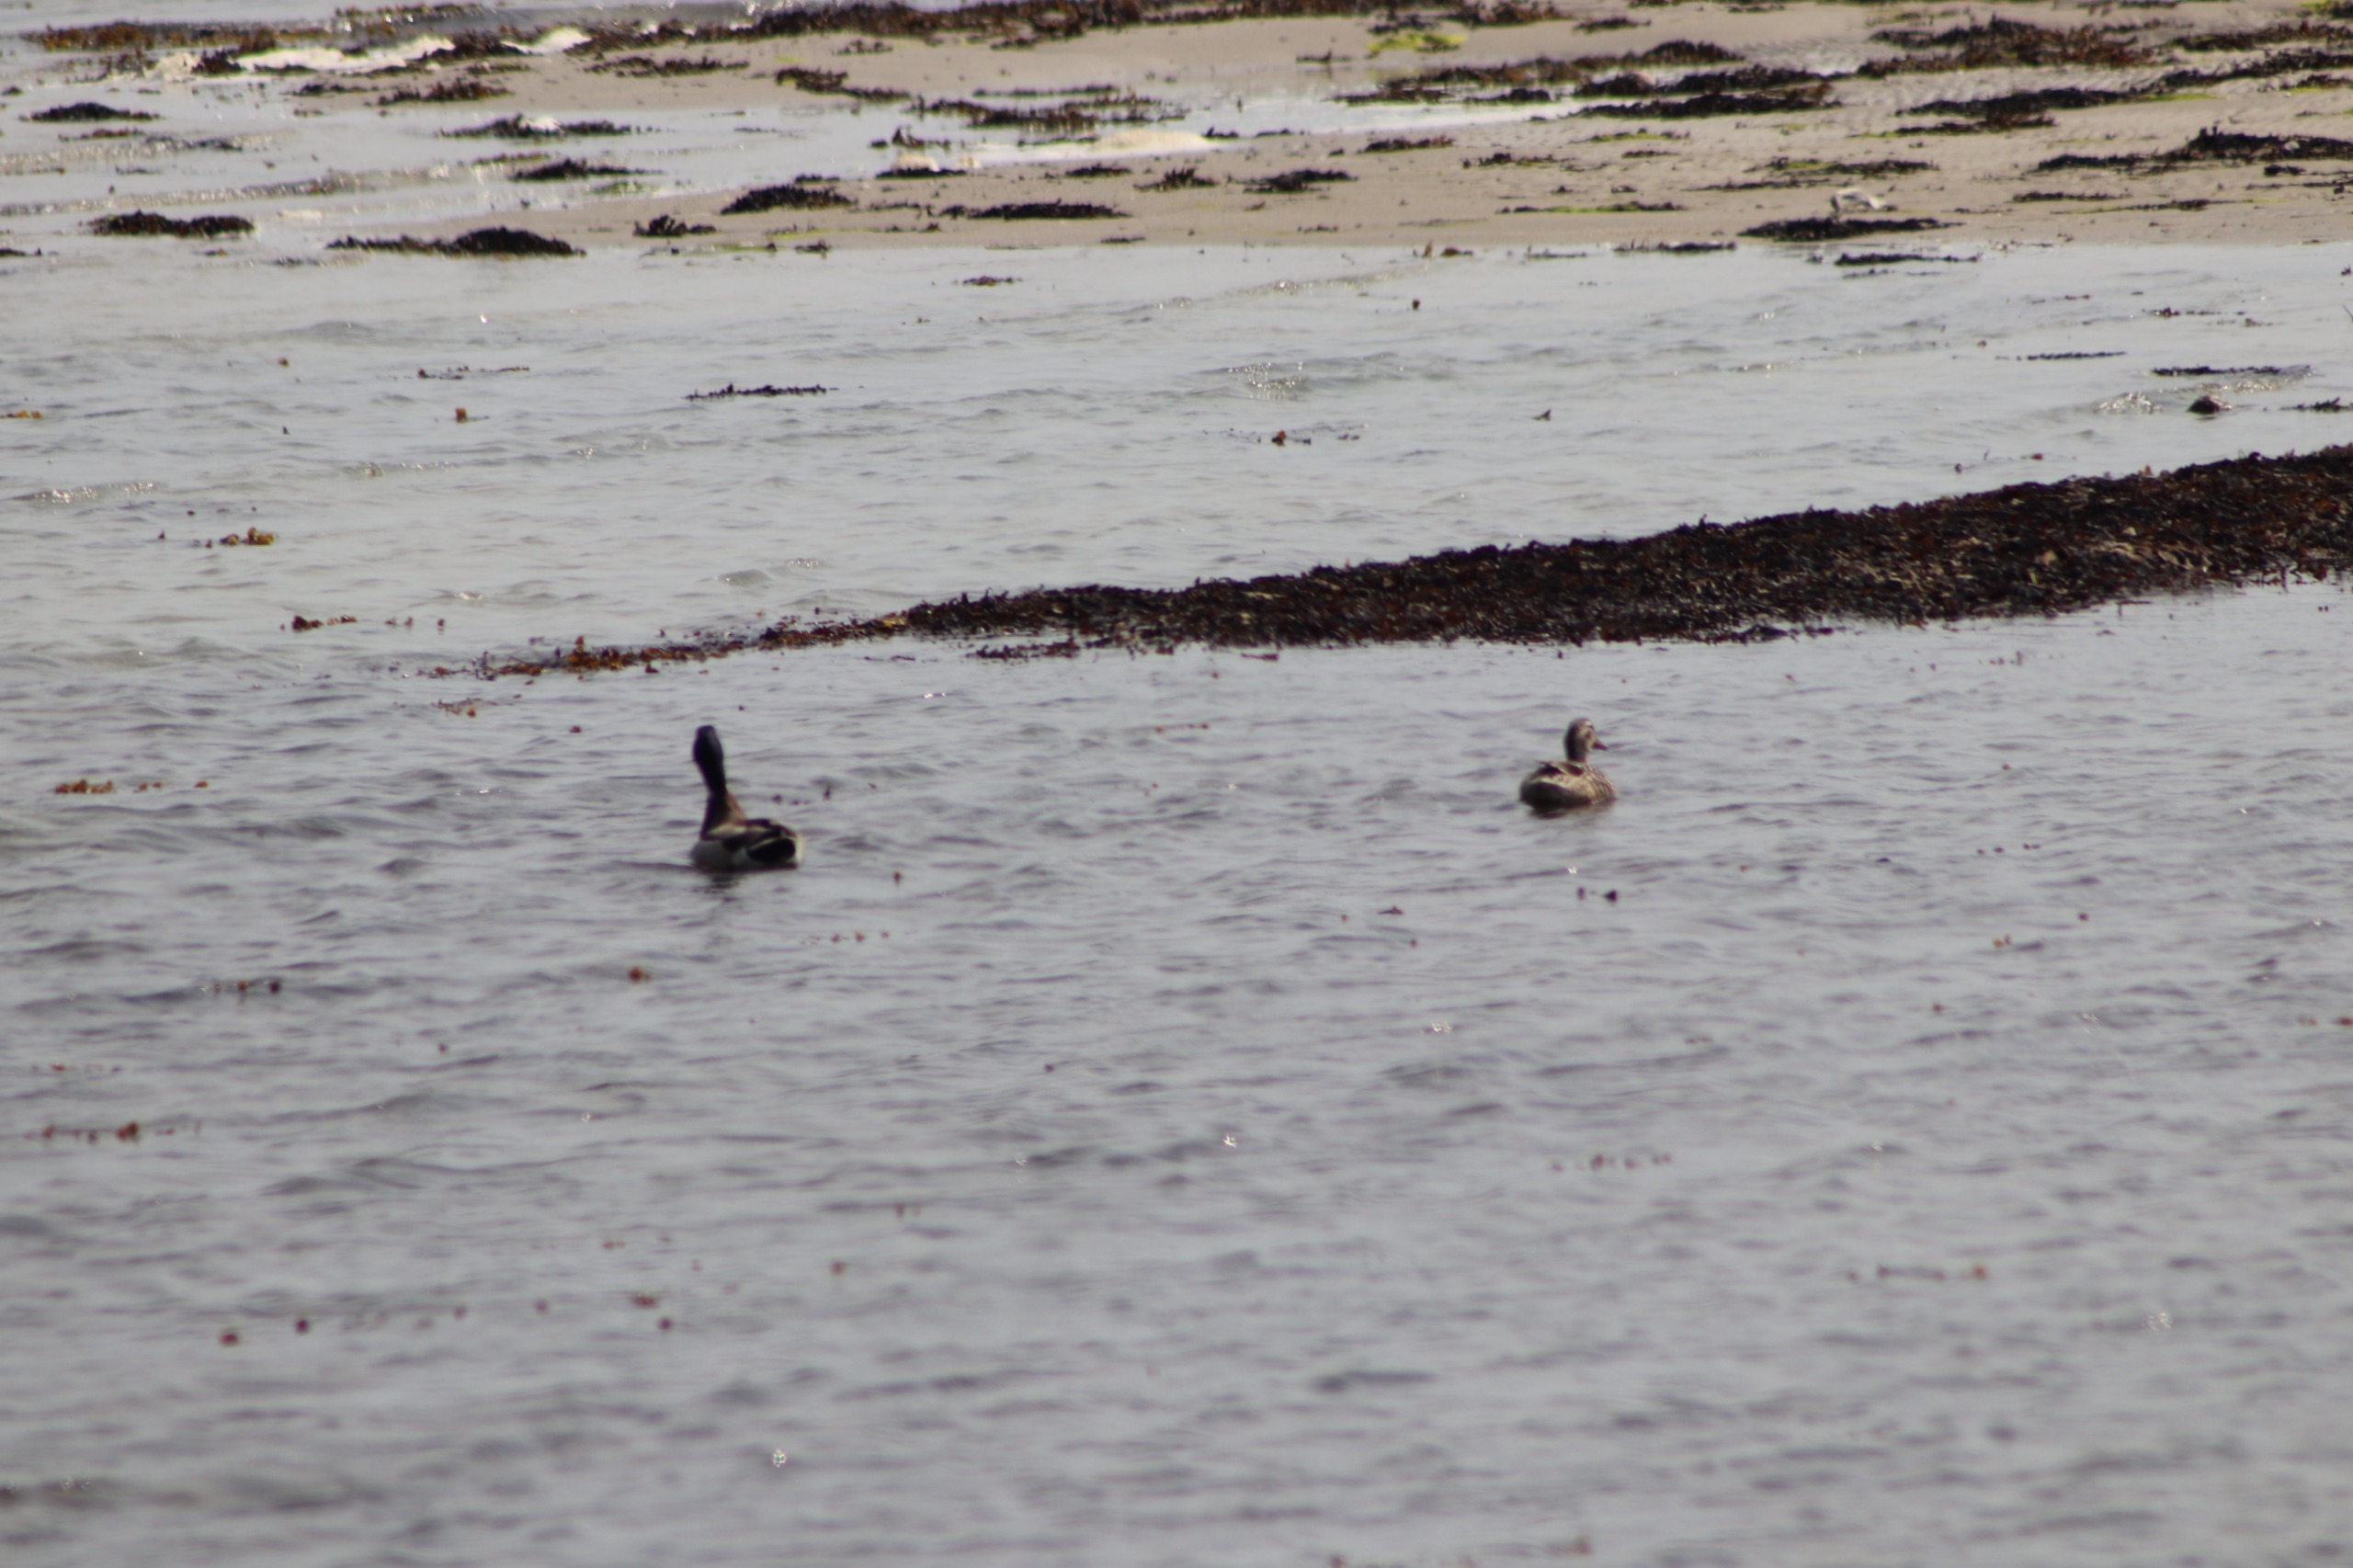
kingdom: Animalia
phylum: Chordata
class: Aves
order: Anseriformes
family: Anatidae
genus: Anas
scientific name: Anas platyrhynchos
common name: Gråand
